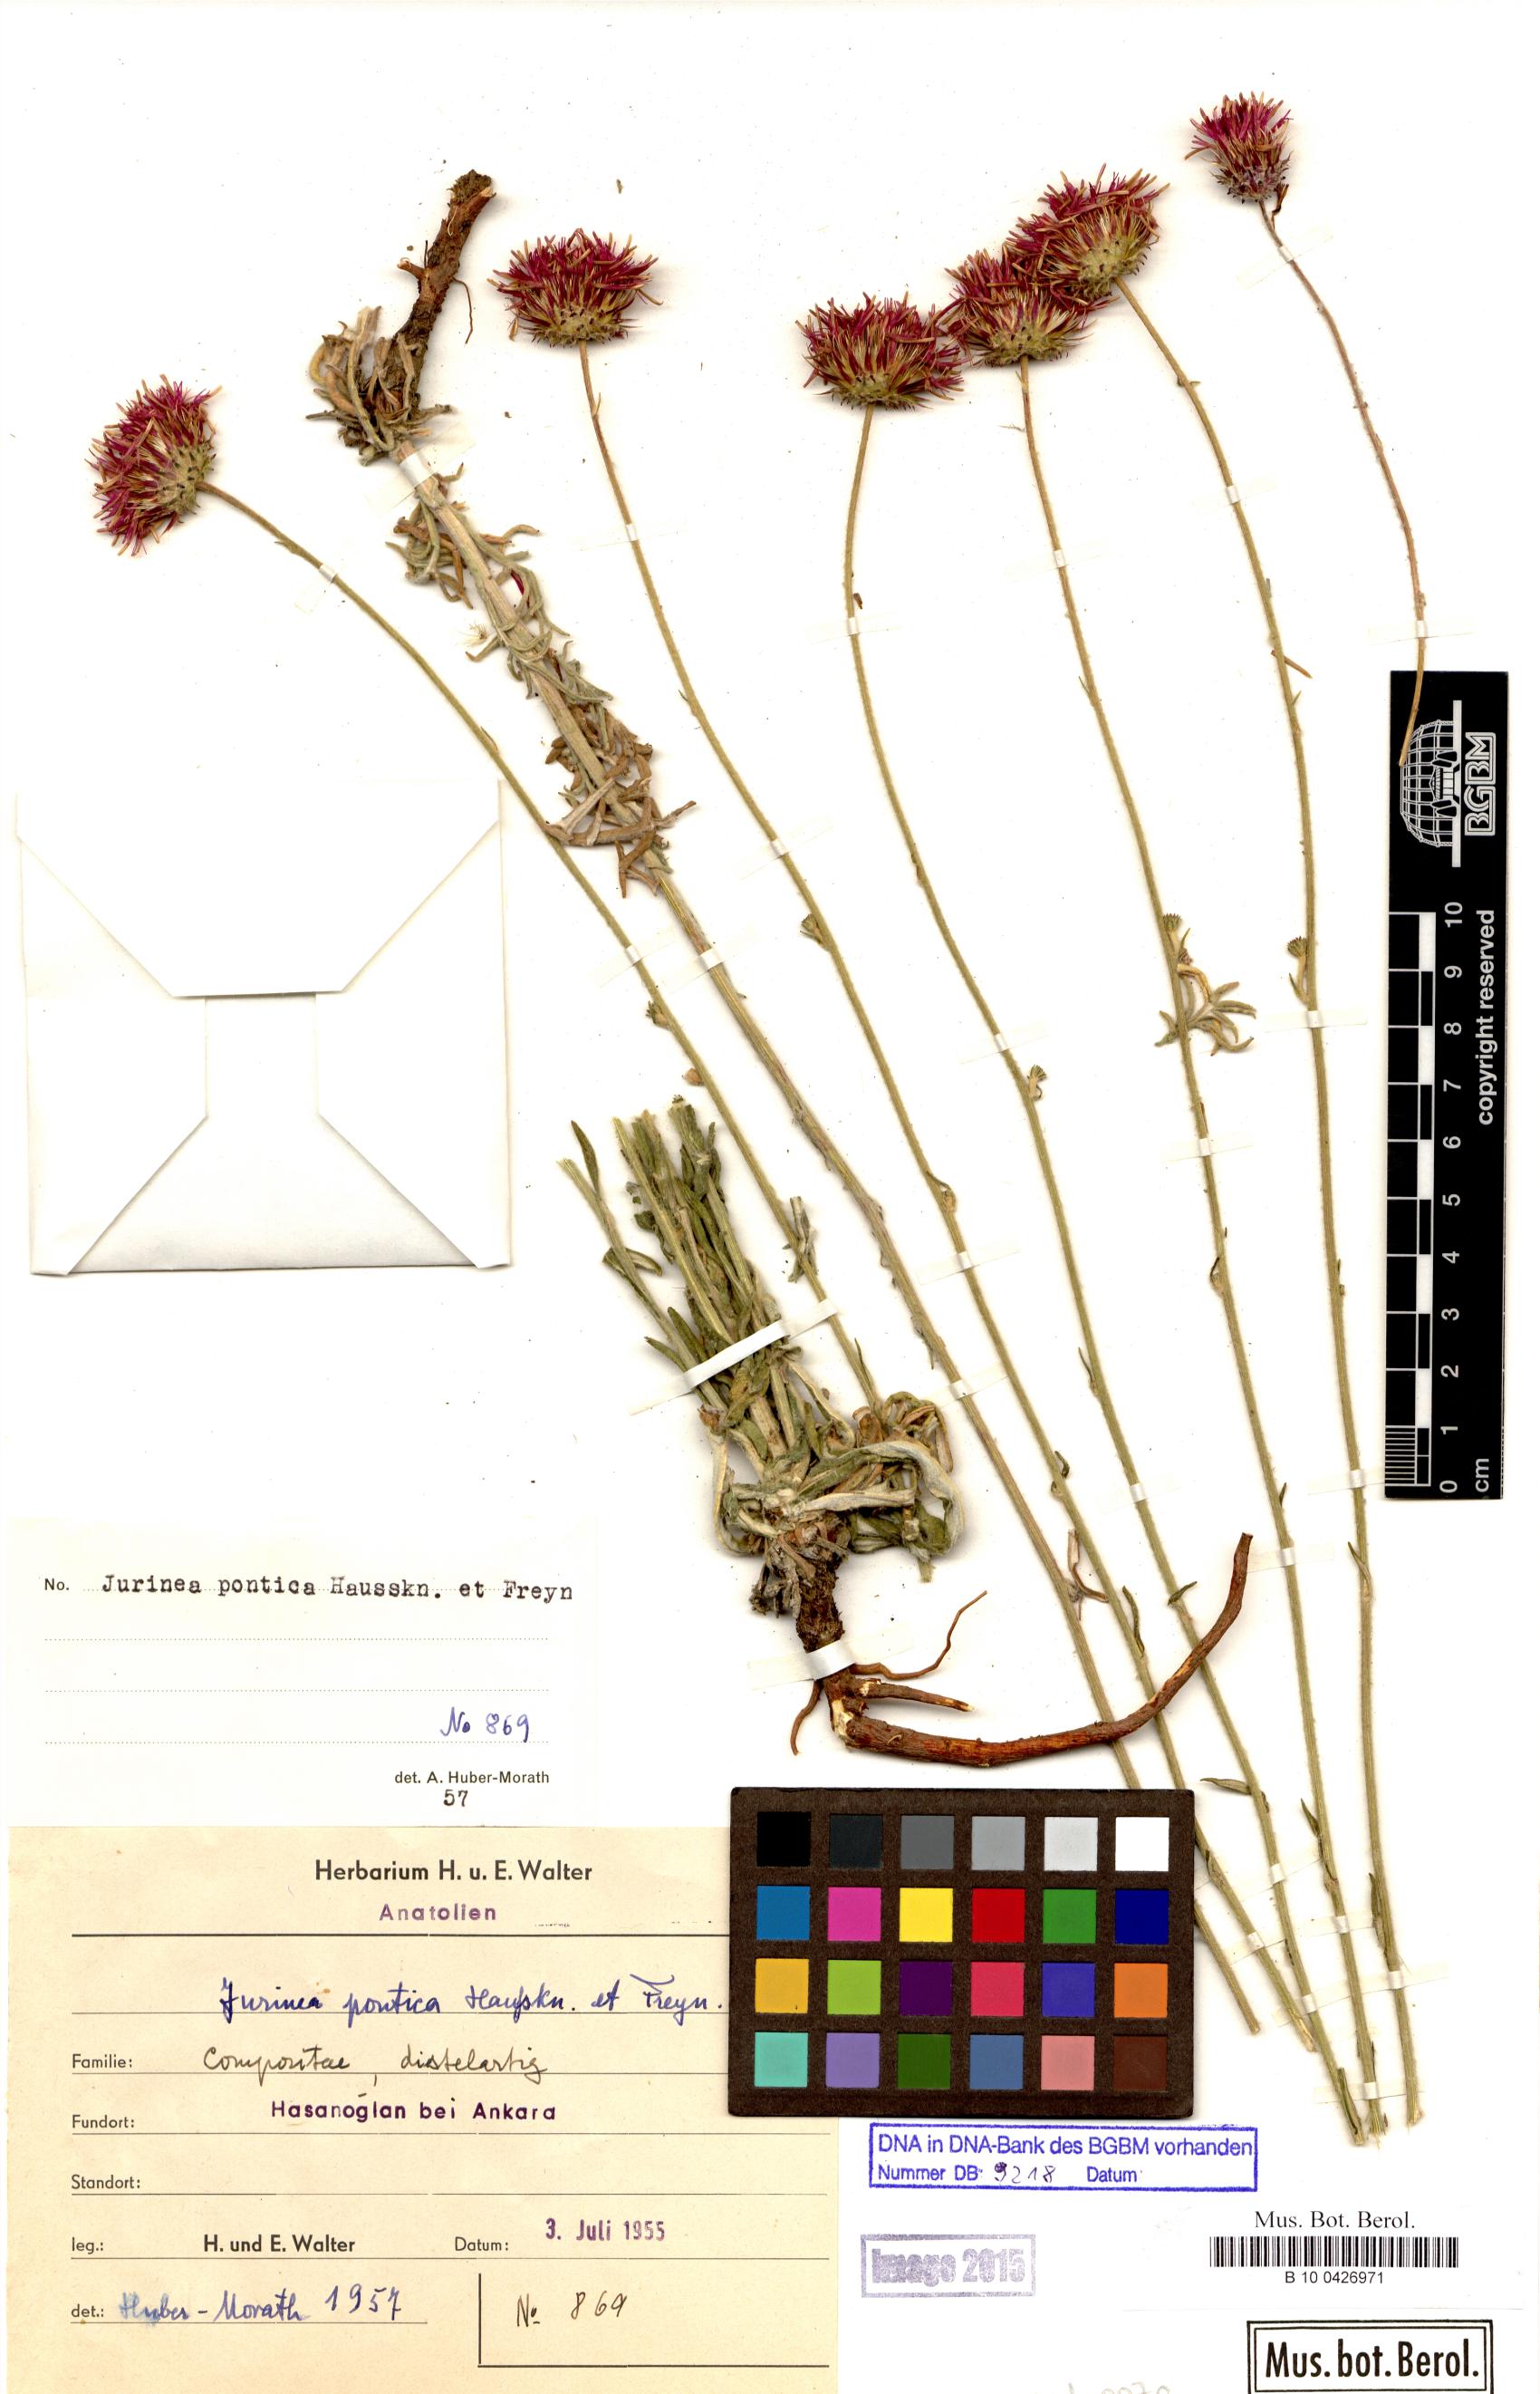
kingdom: Plantae
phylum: Tracheophyta
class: Magnoliopsida
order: Asterales
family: Asteraceae
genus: Jurinea
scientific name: Jurinea pontica
